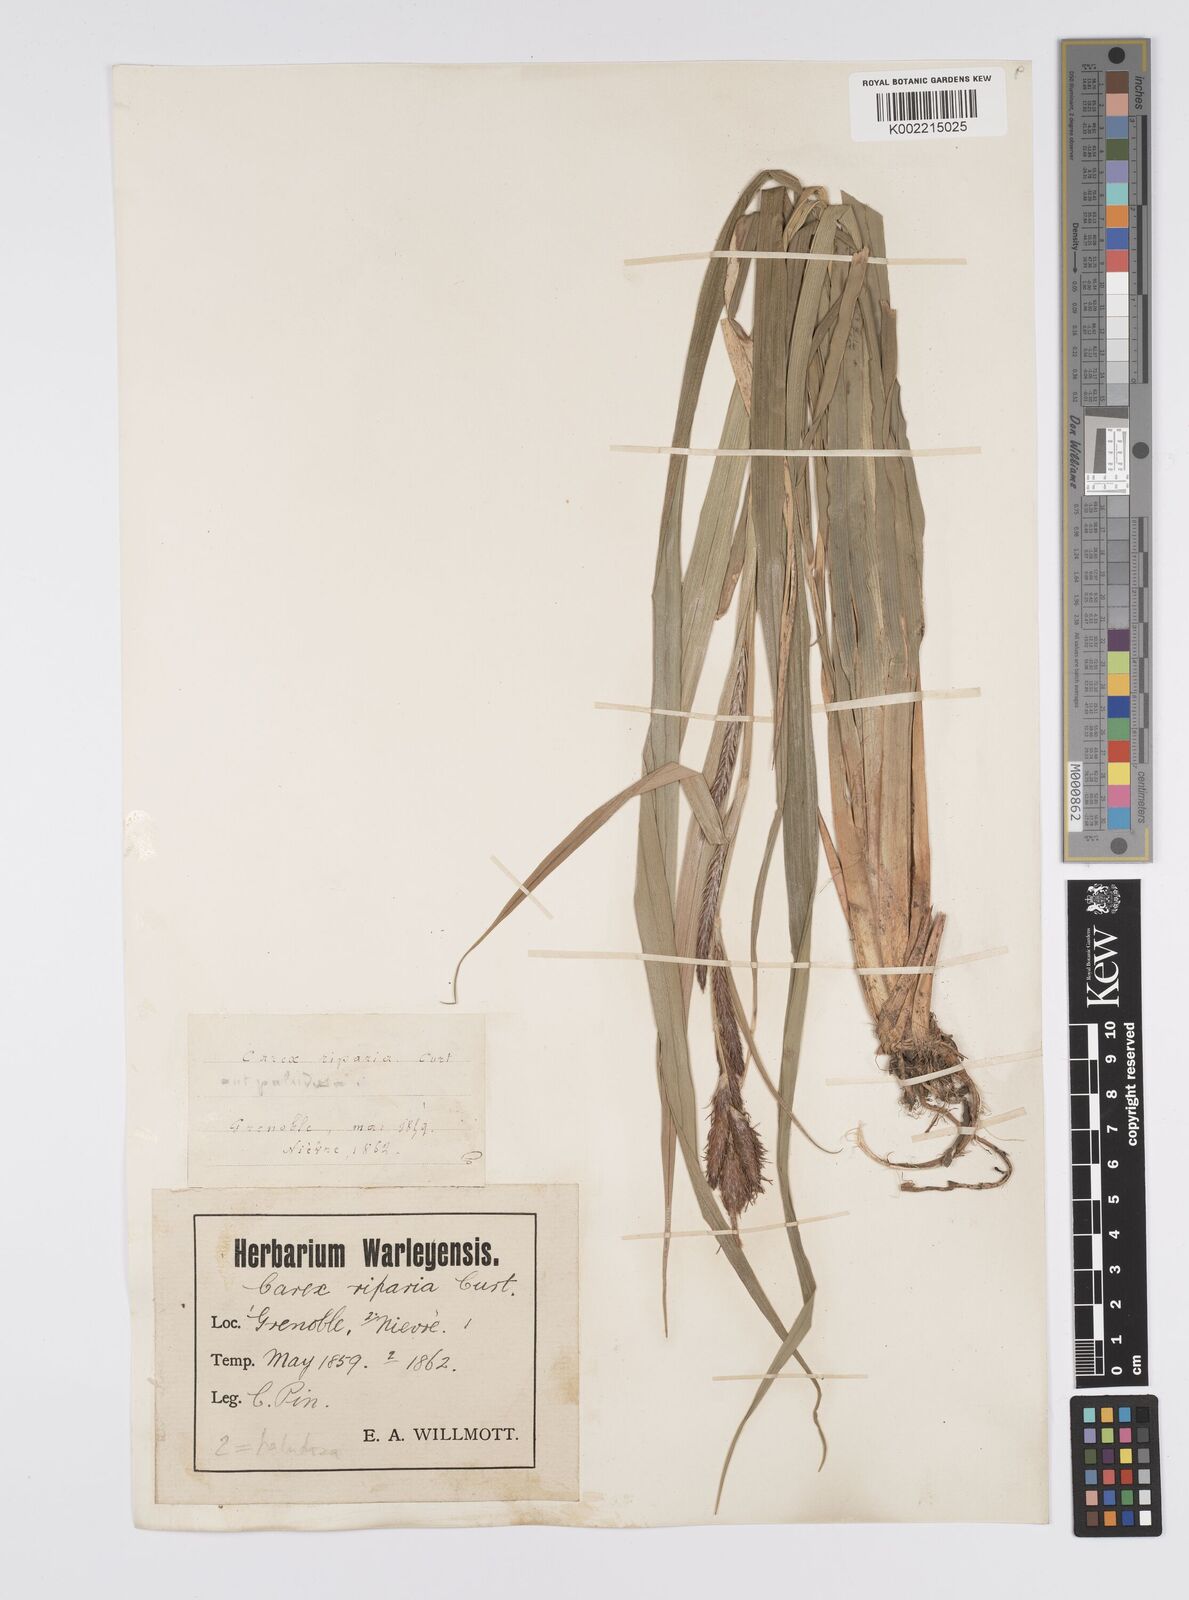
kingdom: Plantae
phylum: Tracheophyta
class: Liliopsida
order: Poales
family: Cyperaceae
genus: Carex
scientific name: Carex riparia
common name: Greater pond-sedge
